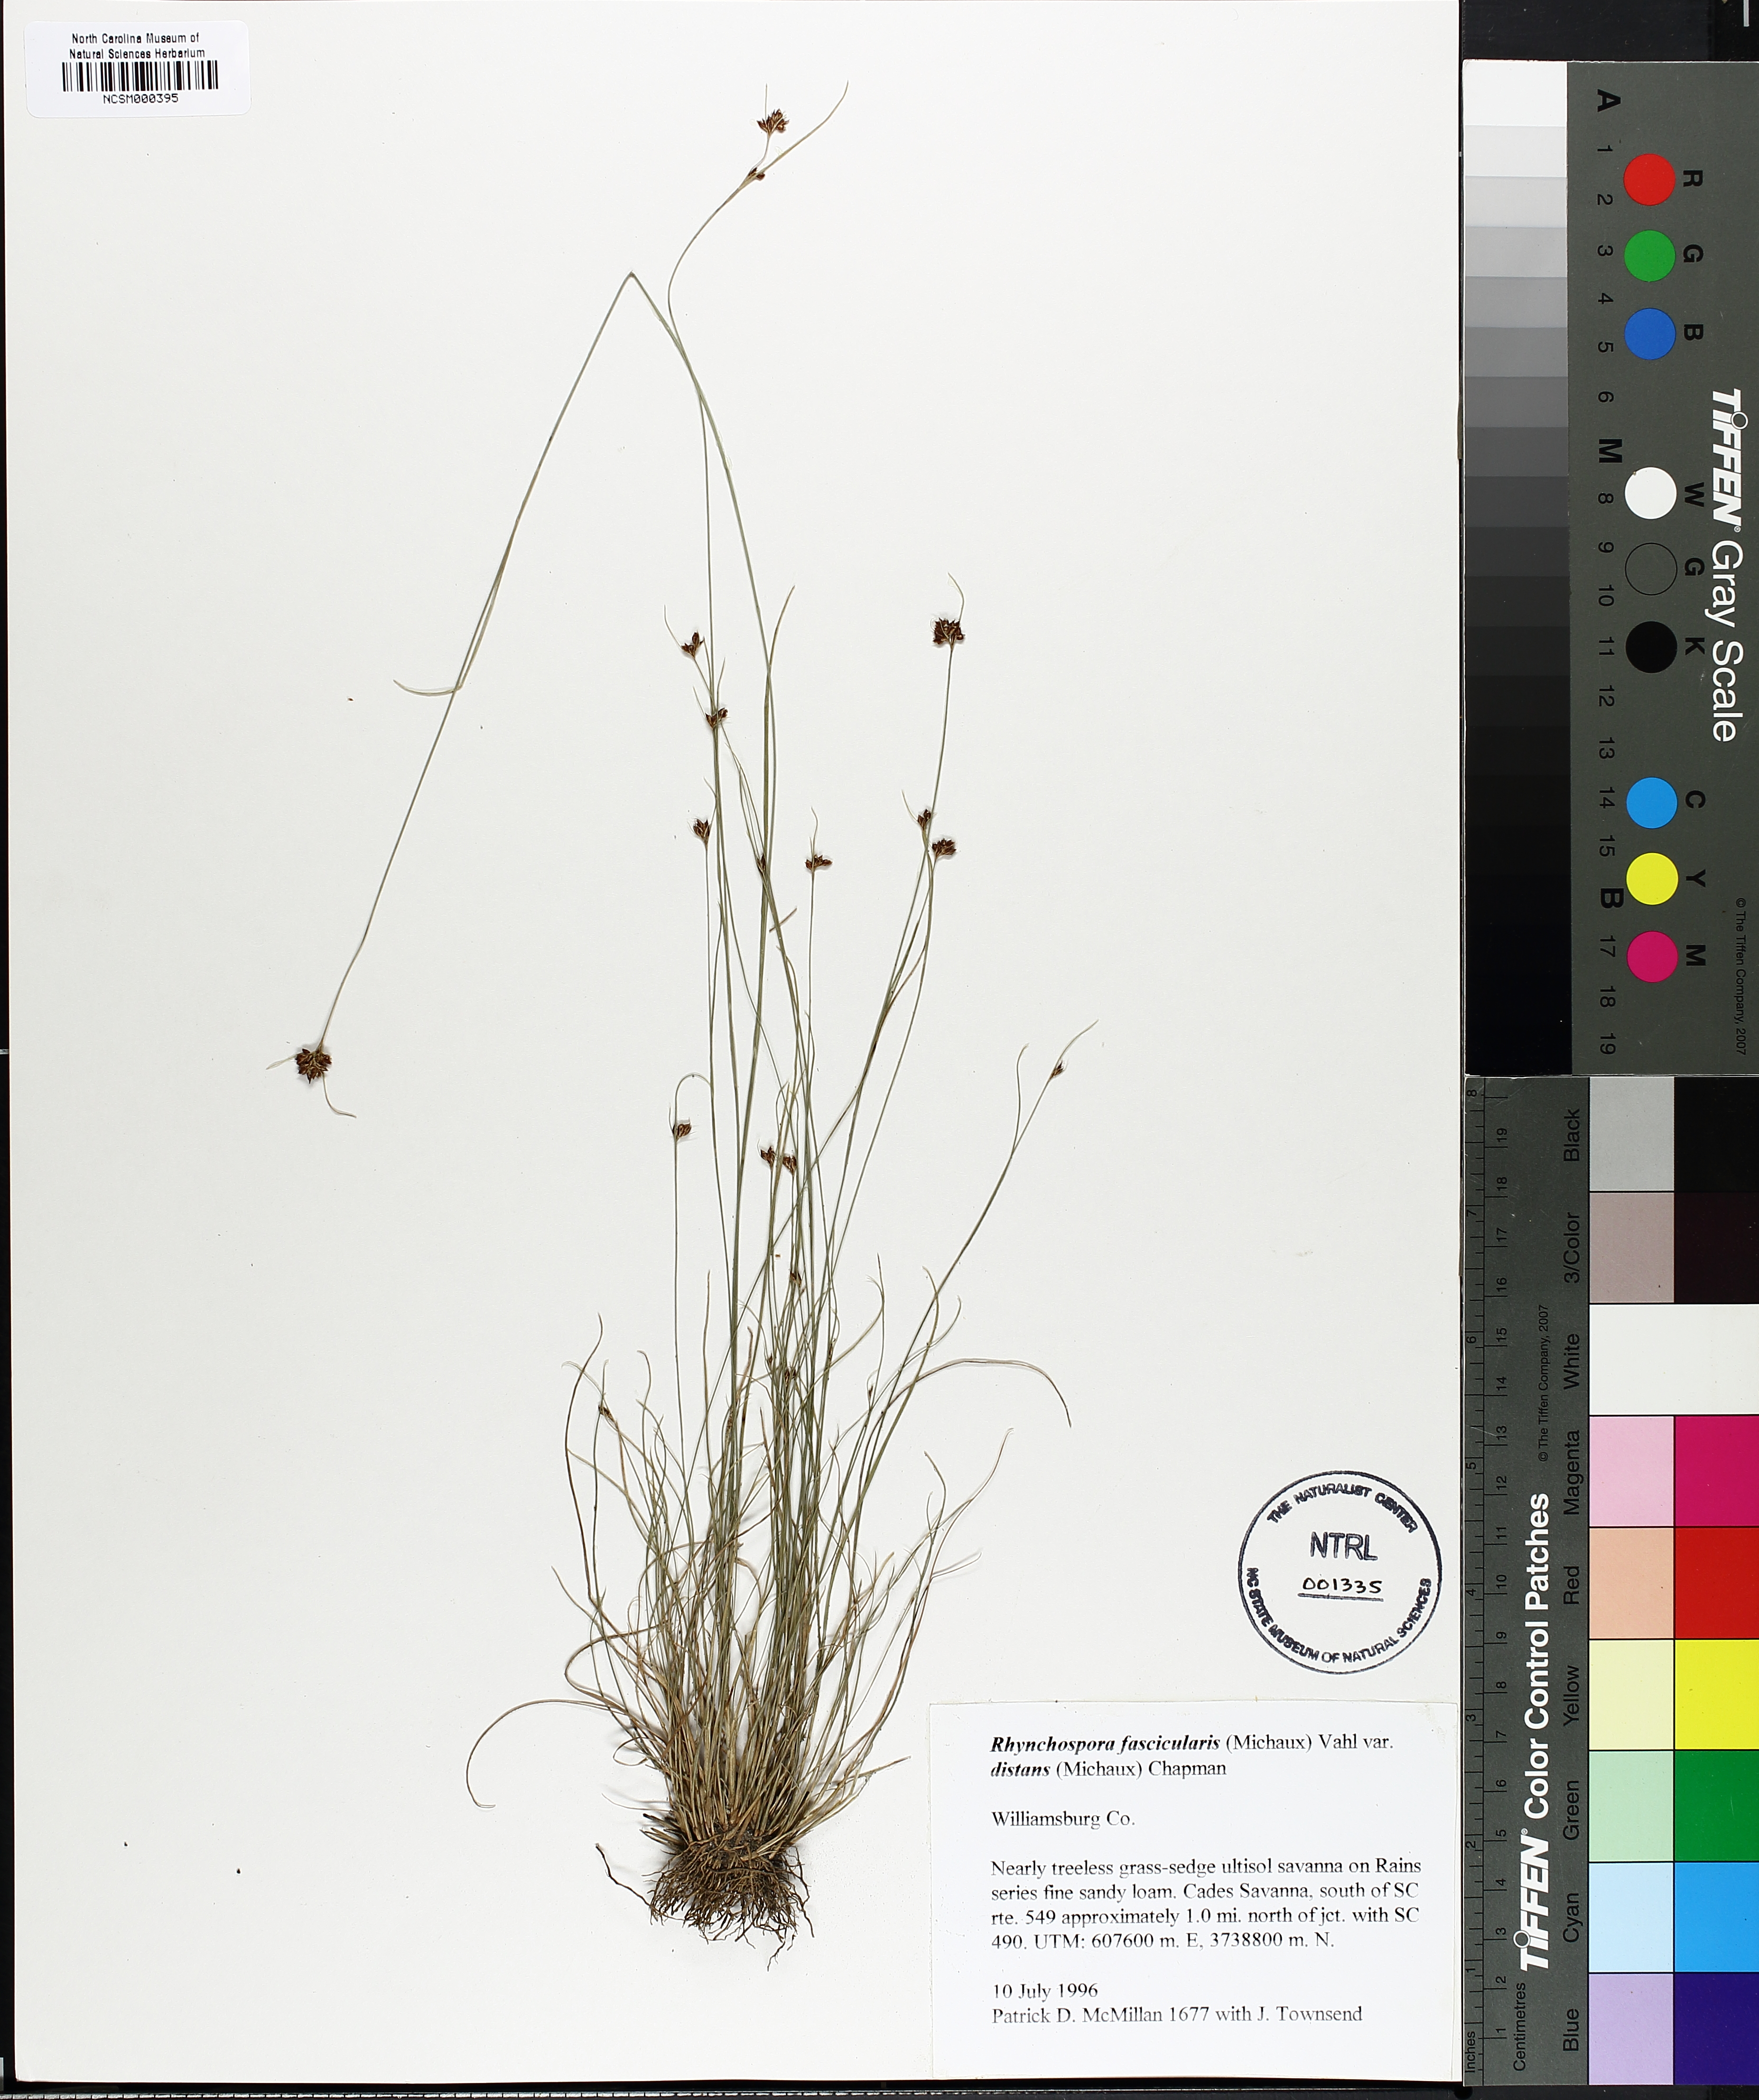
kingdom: Plantae
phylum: Tracheophyta
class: Liliopsida
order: Poales
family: Cyperaceae
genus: Rhynchospora
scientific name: Rhynchospora fascicularis
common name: Fascicled beak sedge
